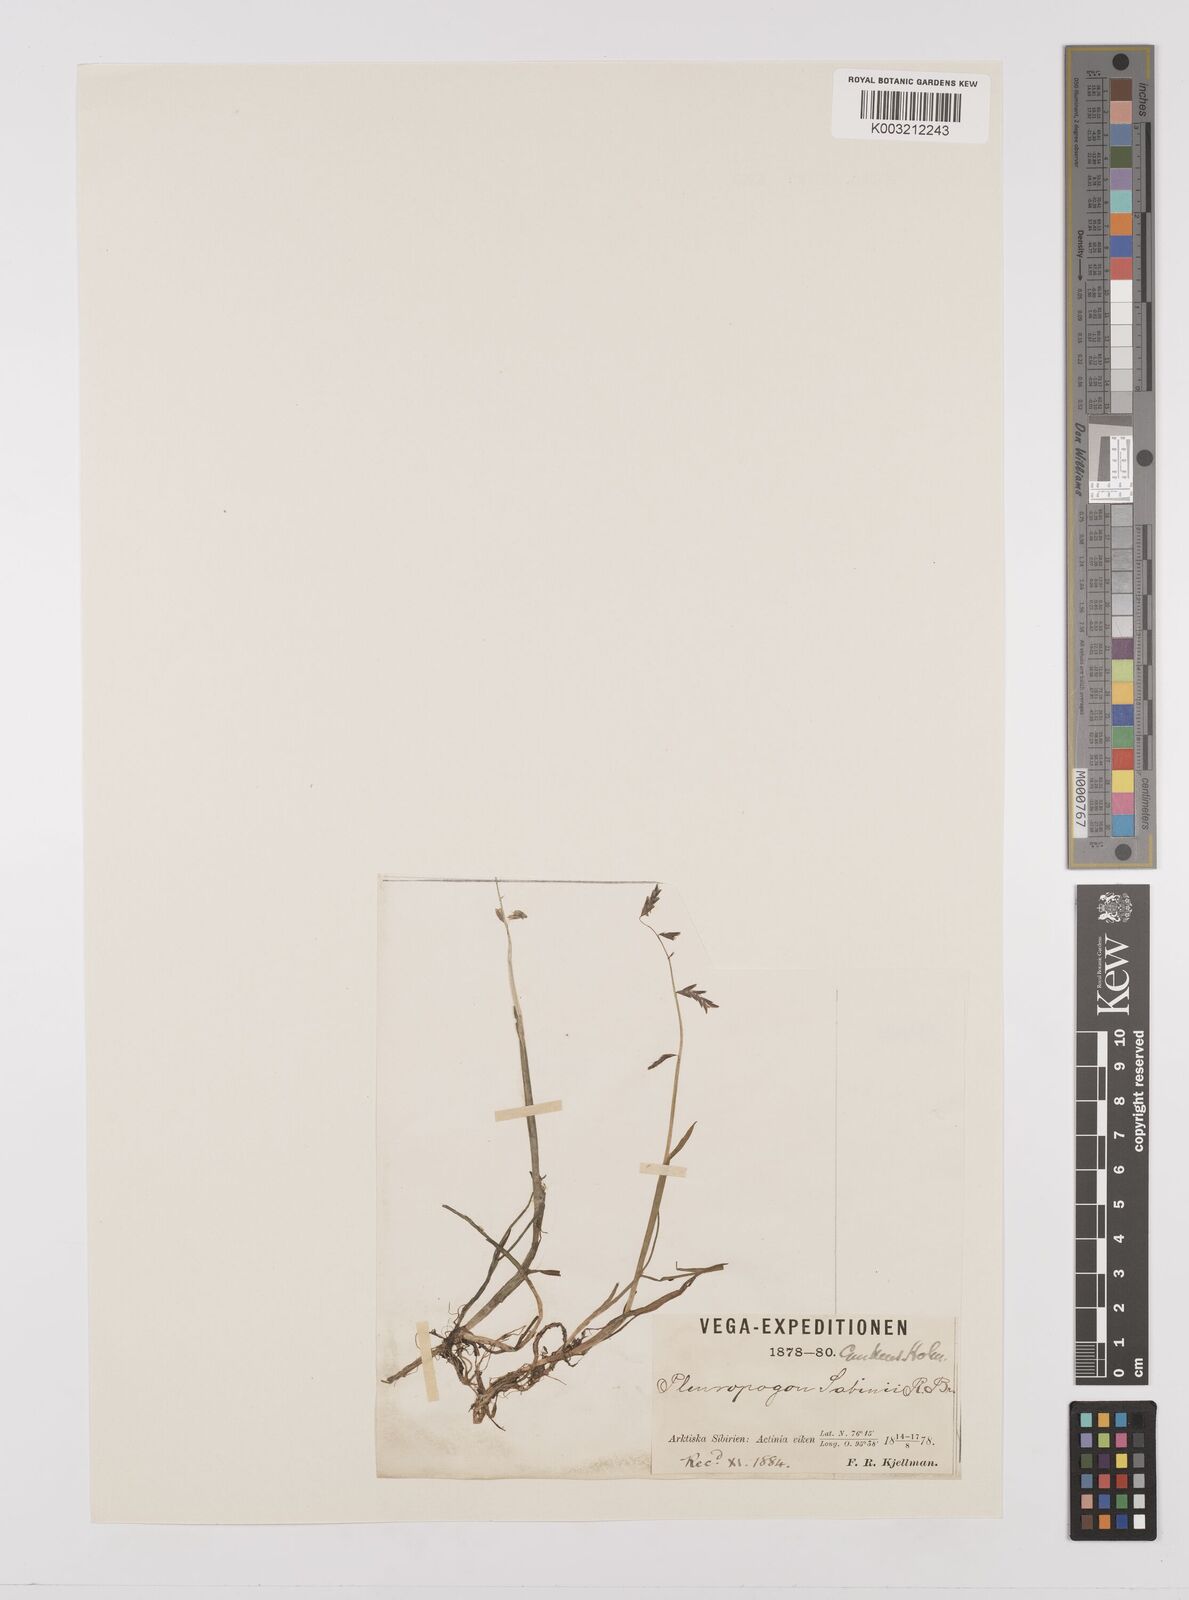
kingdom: Plantae
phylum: Tracheophyta
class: Liliopsida
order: Poales
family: Poaceae
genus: Pleuropogon
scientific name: Pleuropogon sabinei
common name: Sabine's false semaphoregrass
